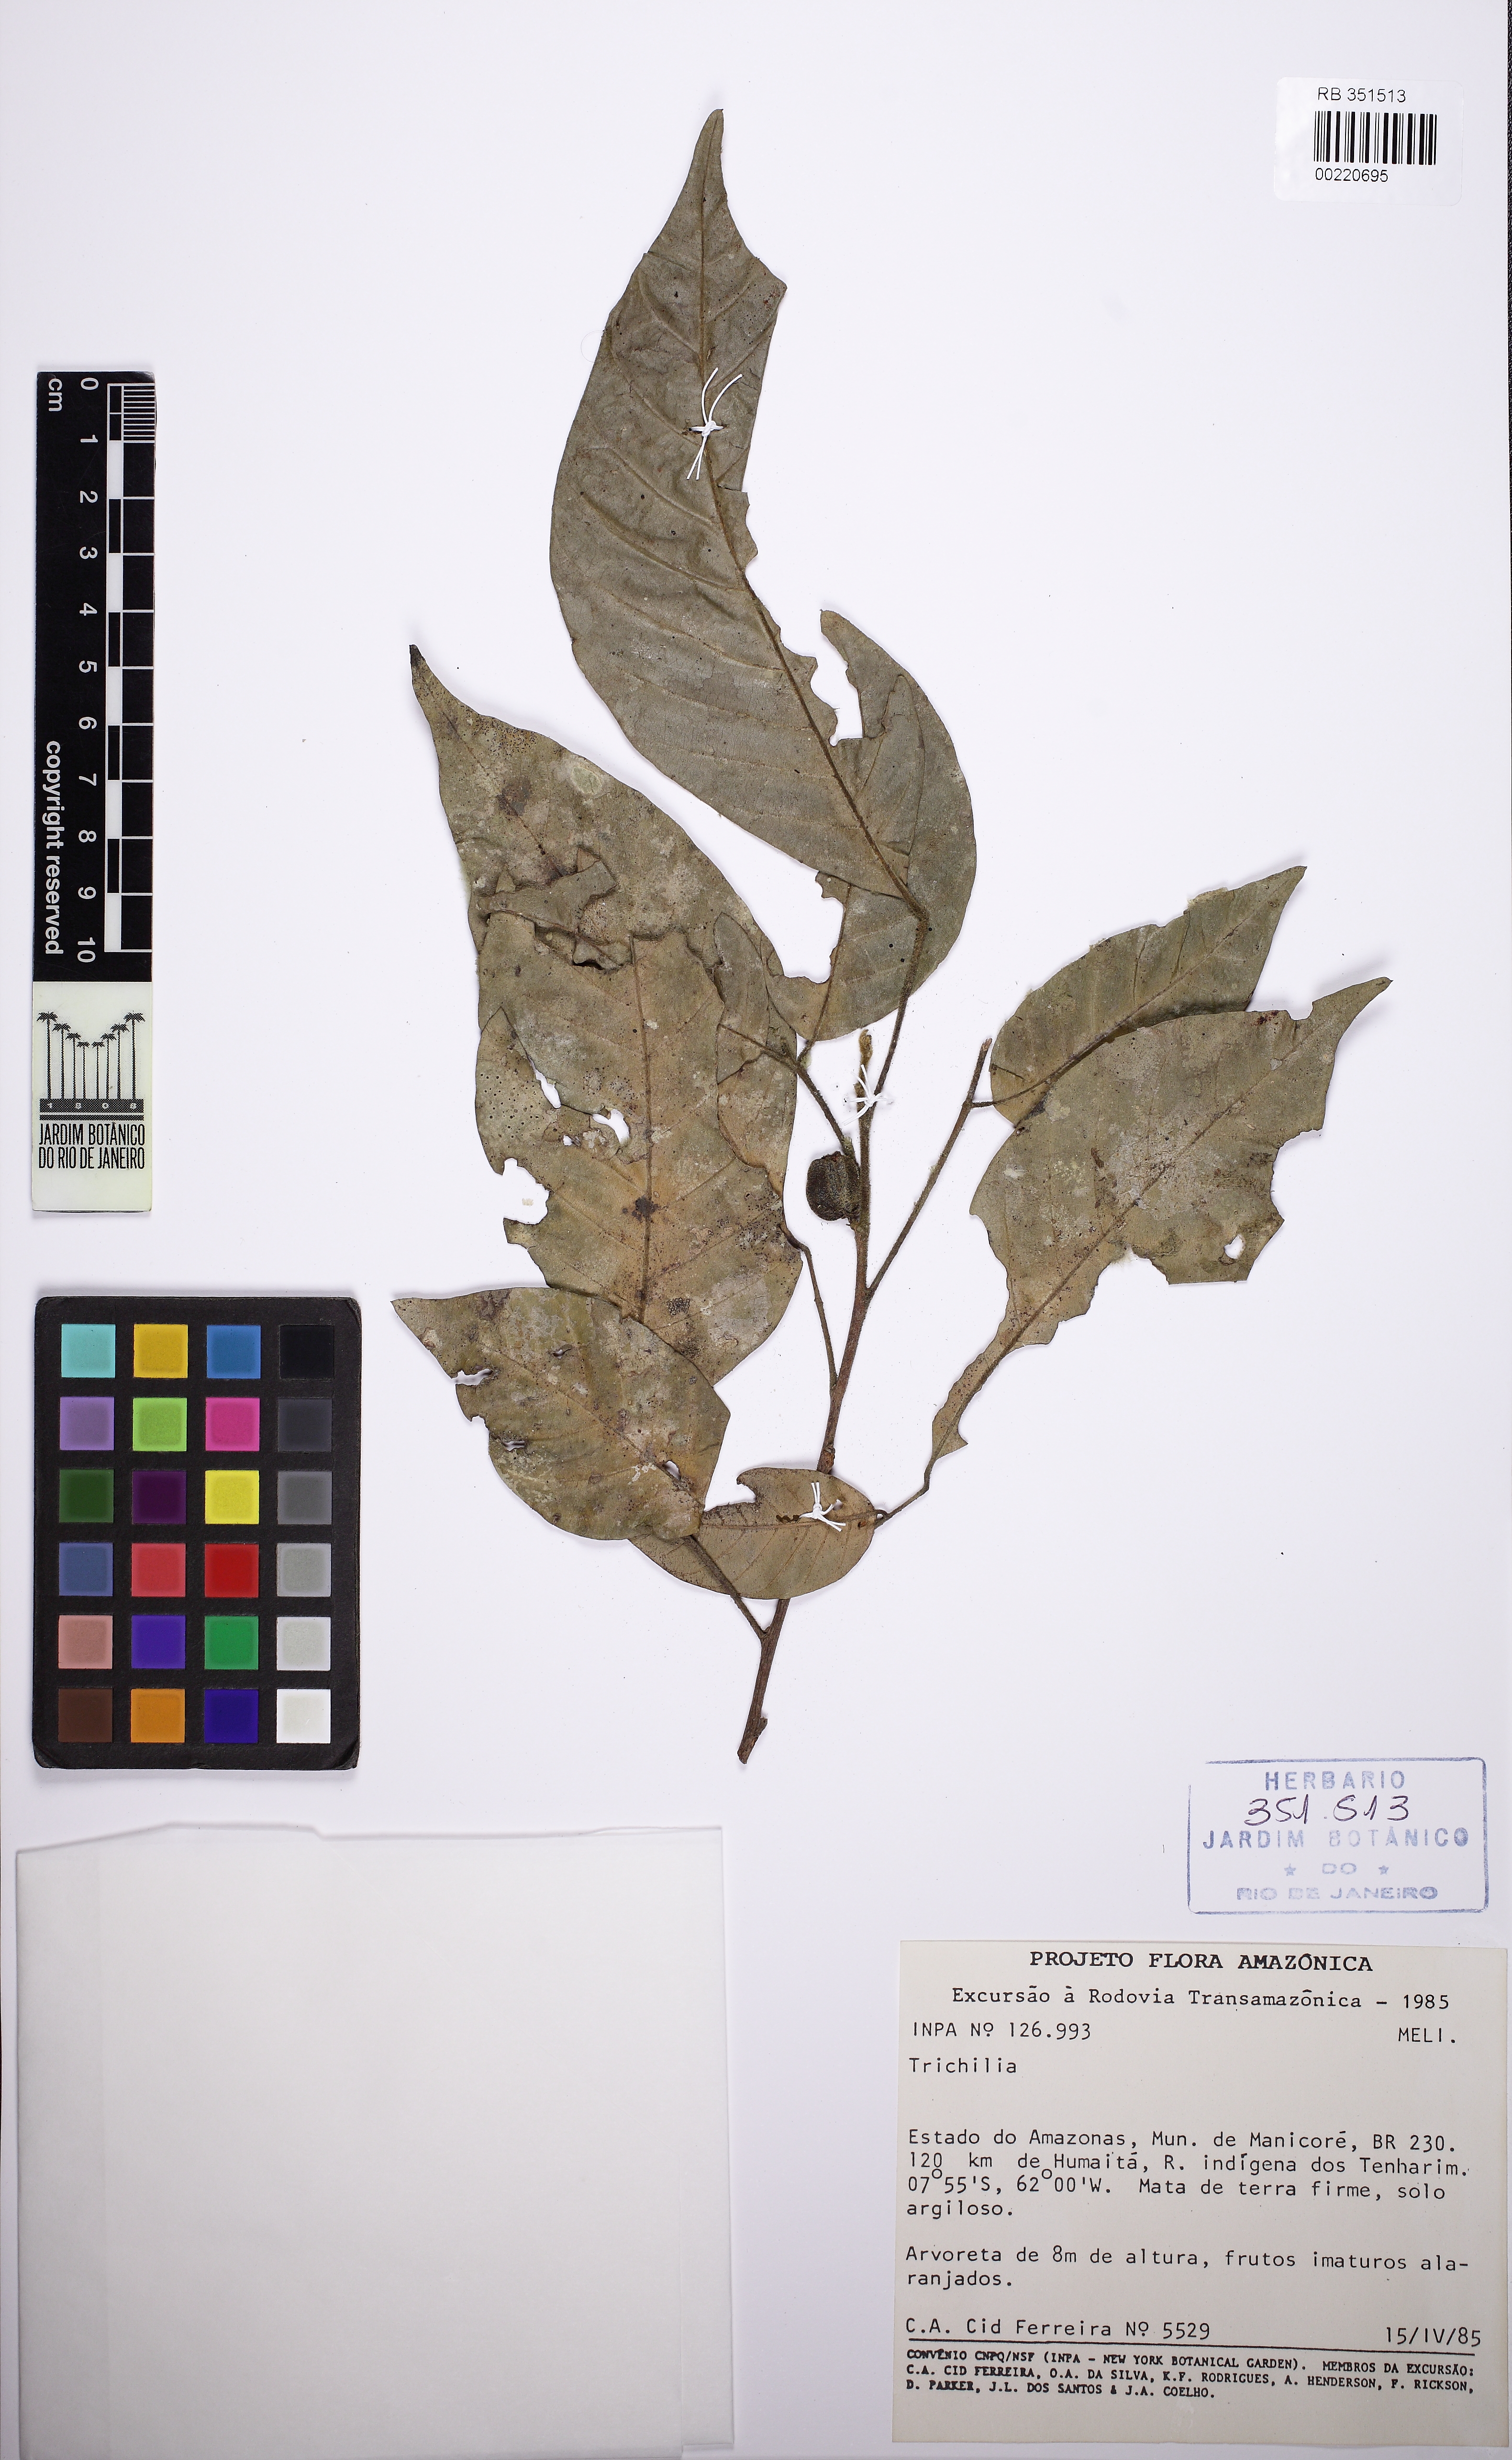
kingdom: Plantae
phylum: Tracheophyta
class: Magnoliopsida
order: Sapindales
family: Meliaceae
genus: Trichilia
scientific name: Trichilia fasciculata
